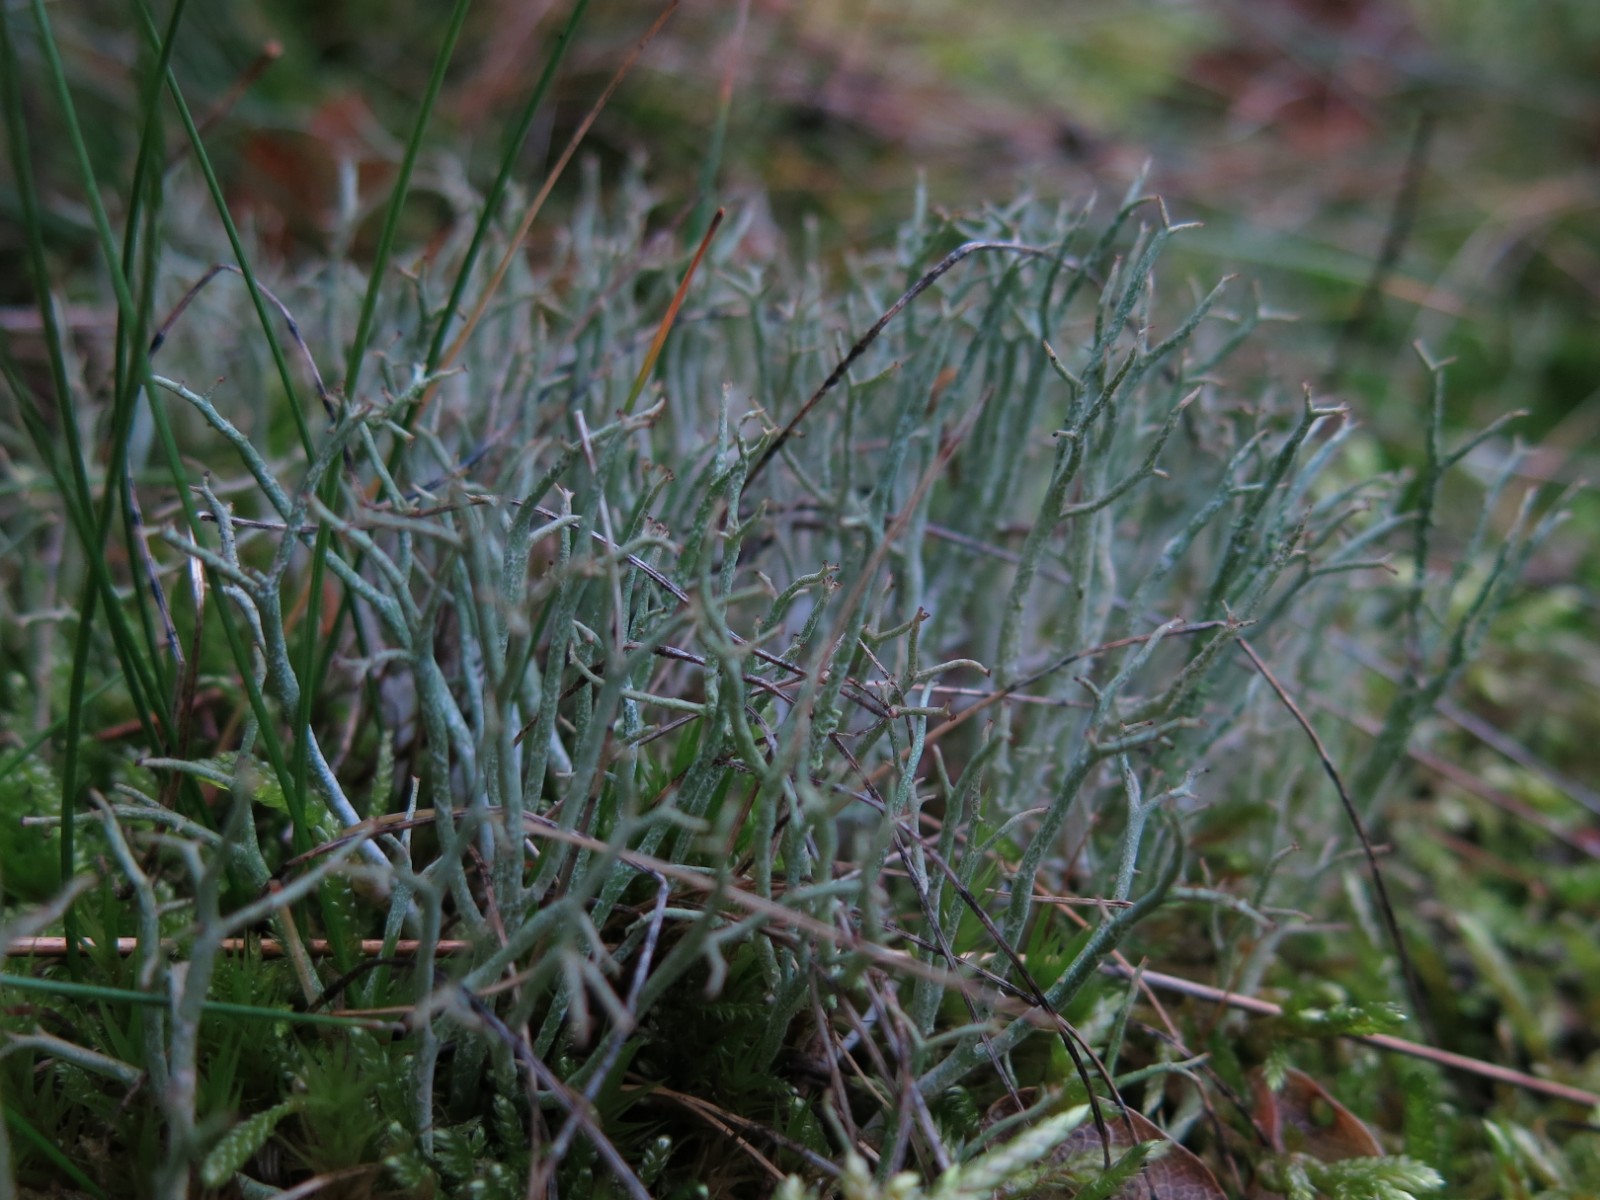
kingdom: Fungi
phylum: Ascomycota
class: Lecanoromycetes
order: Lecanorales
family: Cladoniaceae
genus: Cladonia
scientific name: Cladonia furcata
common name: kløftet bægerlav
